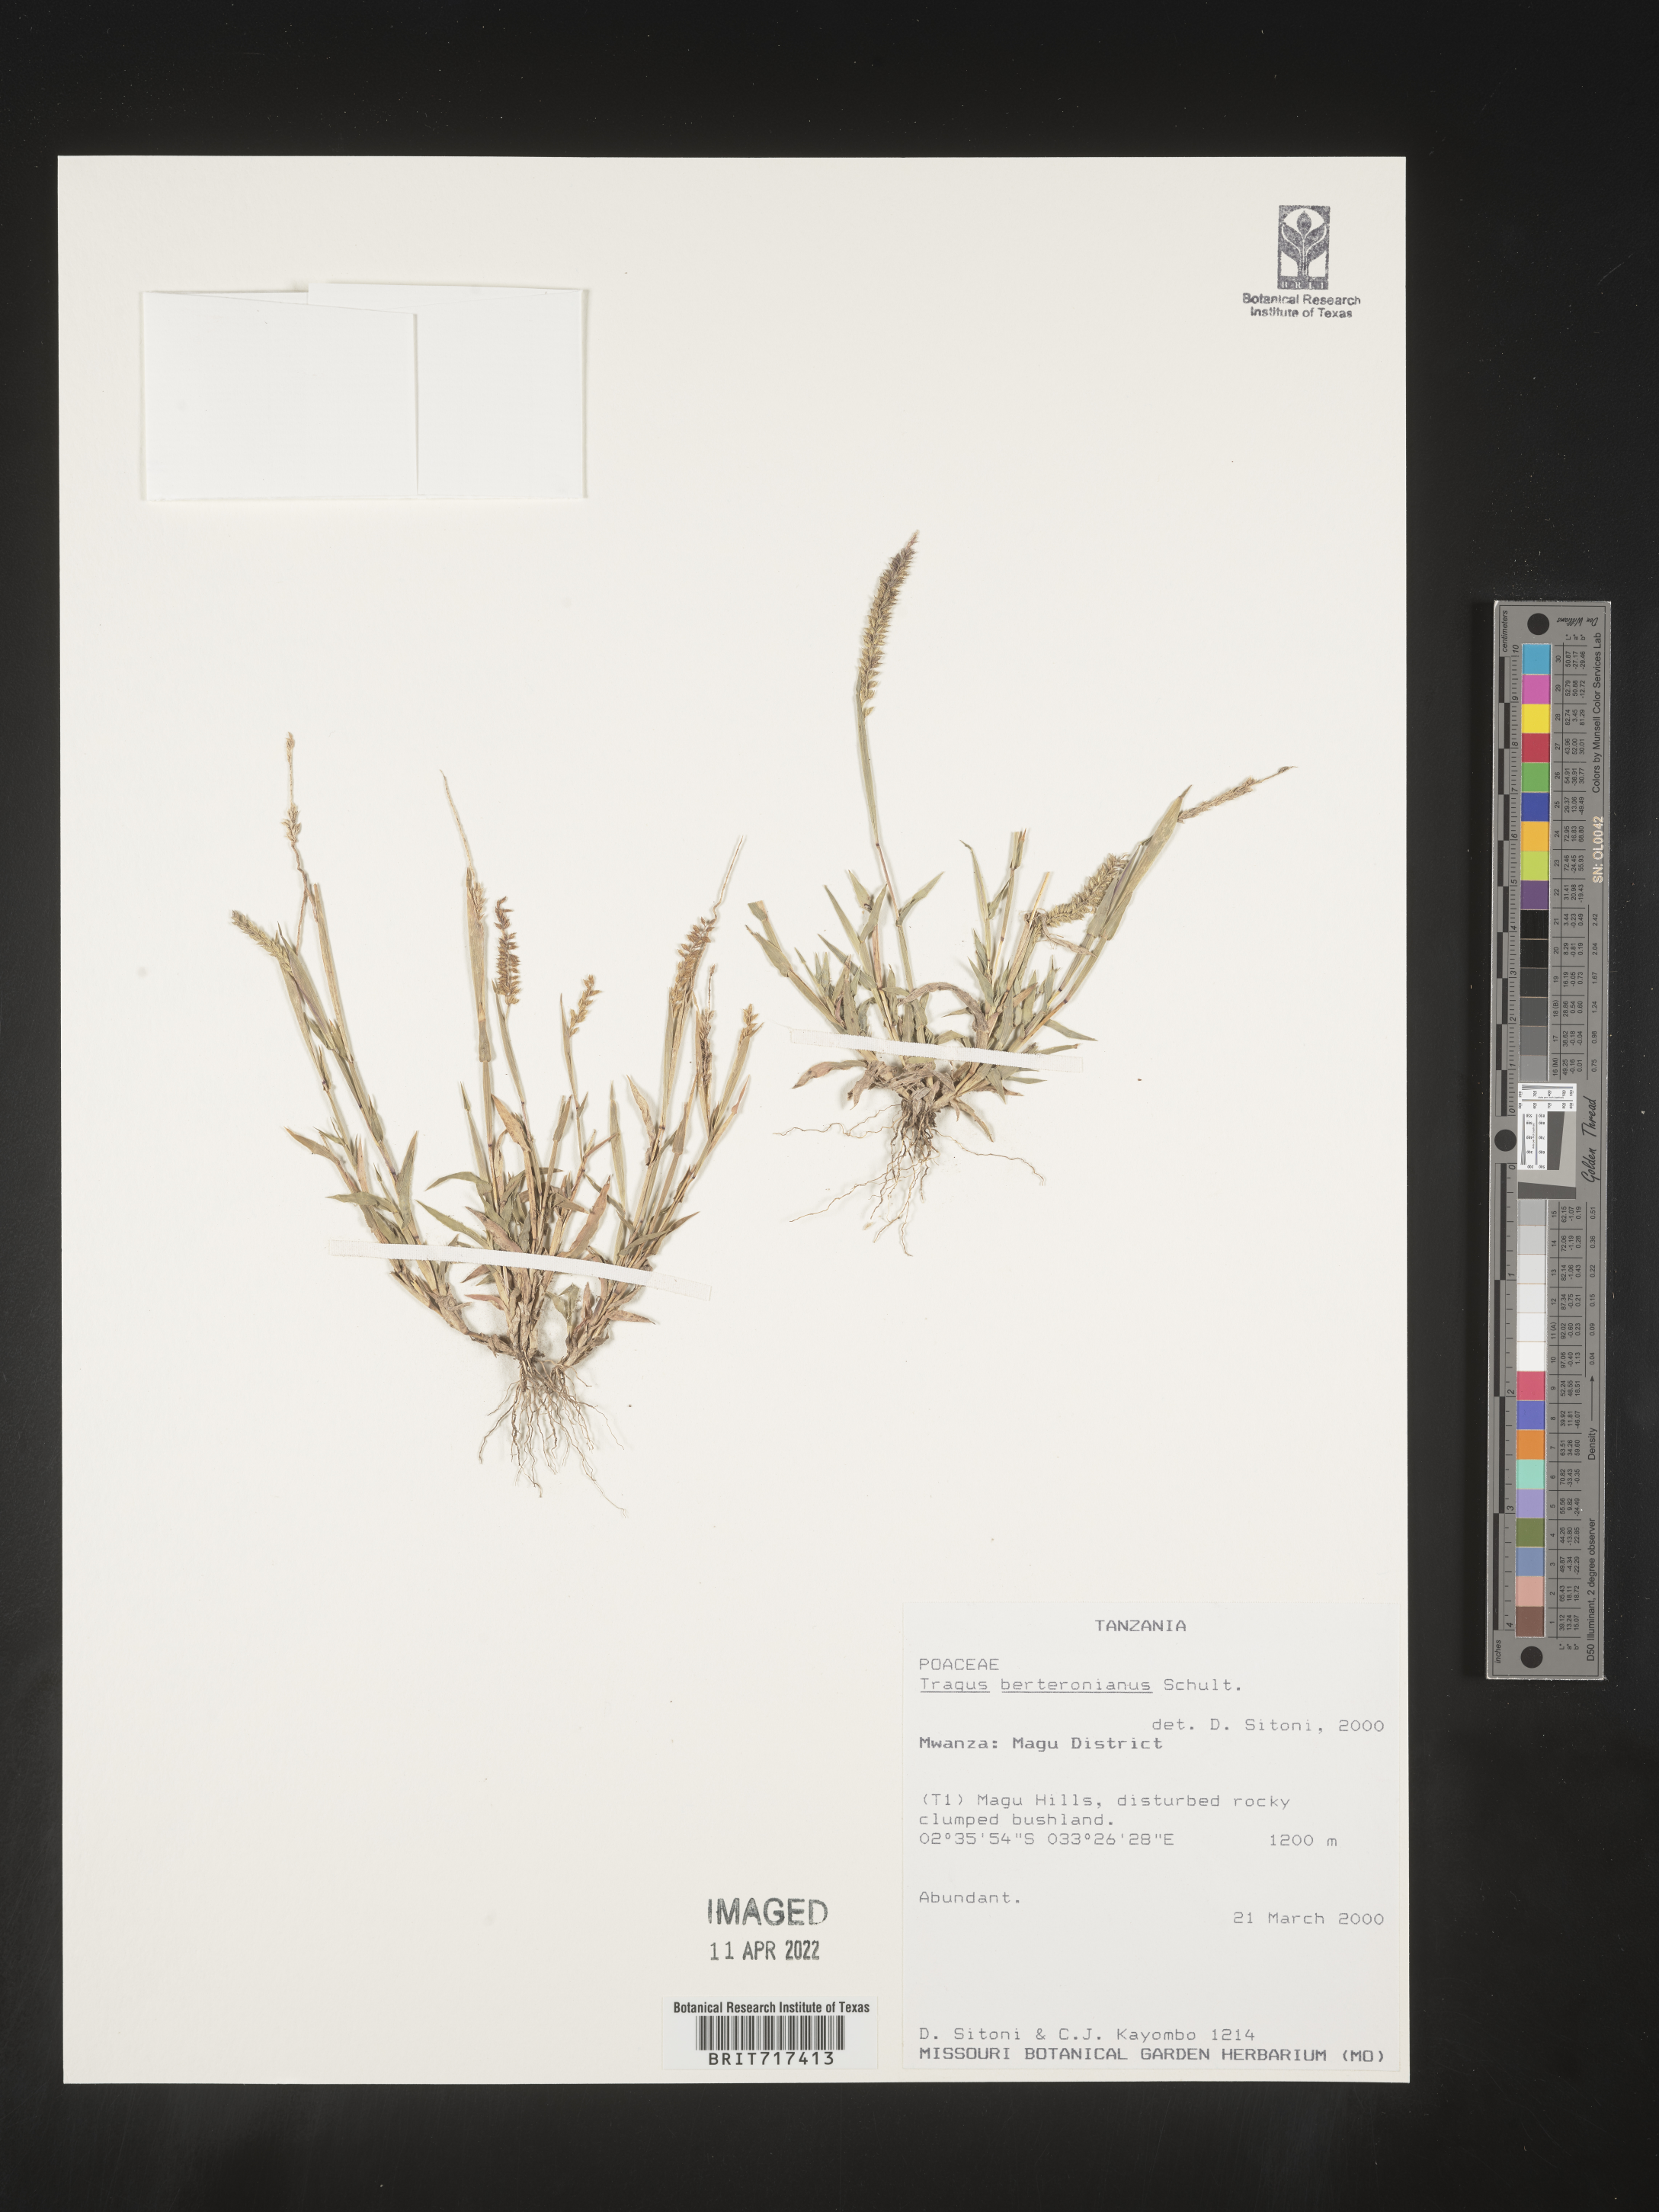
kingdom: Plantae
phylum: Tracheophyta
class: Liliopsida
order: Poales
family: Poaceae
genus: Tragus
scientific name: Tragus
